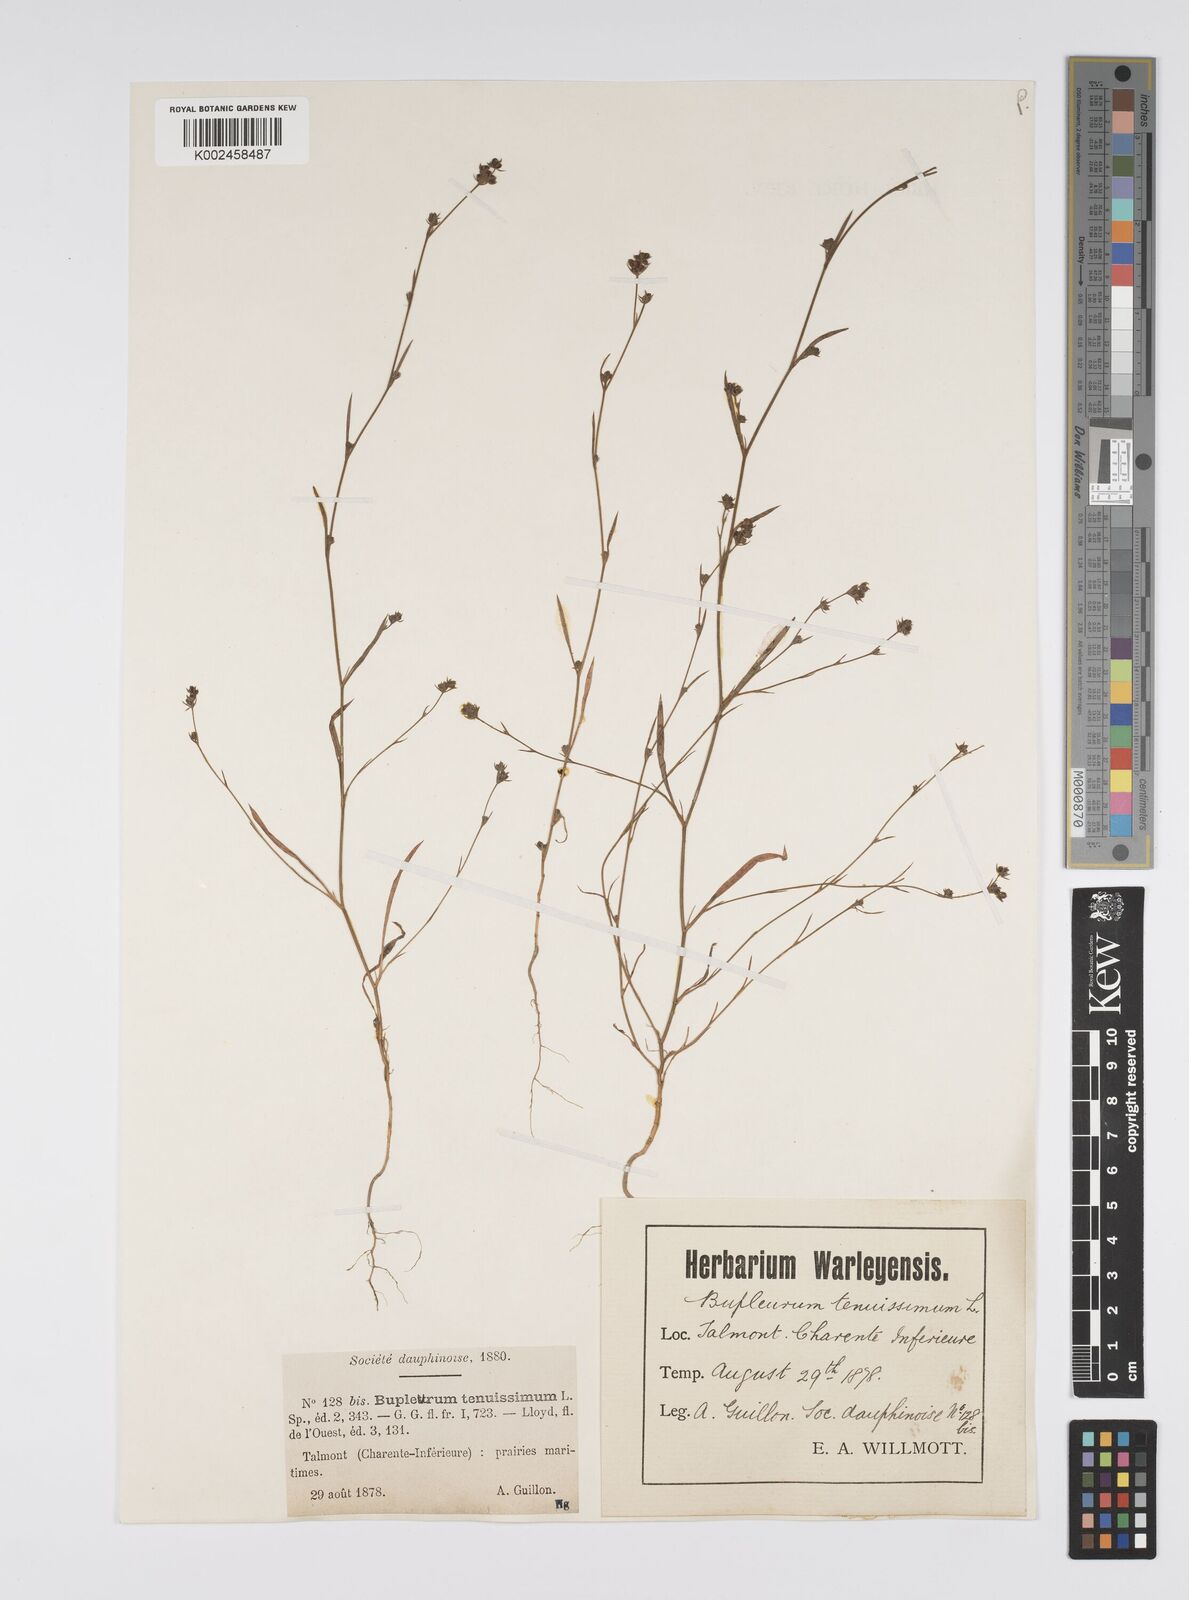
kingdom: Plantae
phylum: Tracheophyta
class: Magnoliopsida
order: Apiales
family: Apiaceae
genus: Bupleurum
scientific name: Bupleurum tenuissimum
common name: Slender hare's-ear
